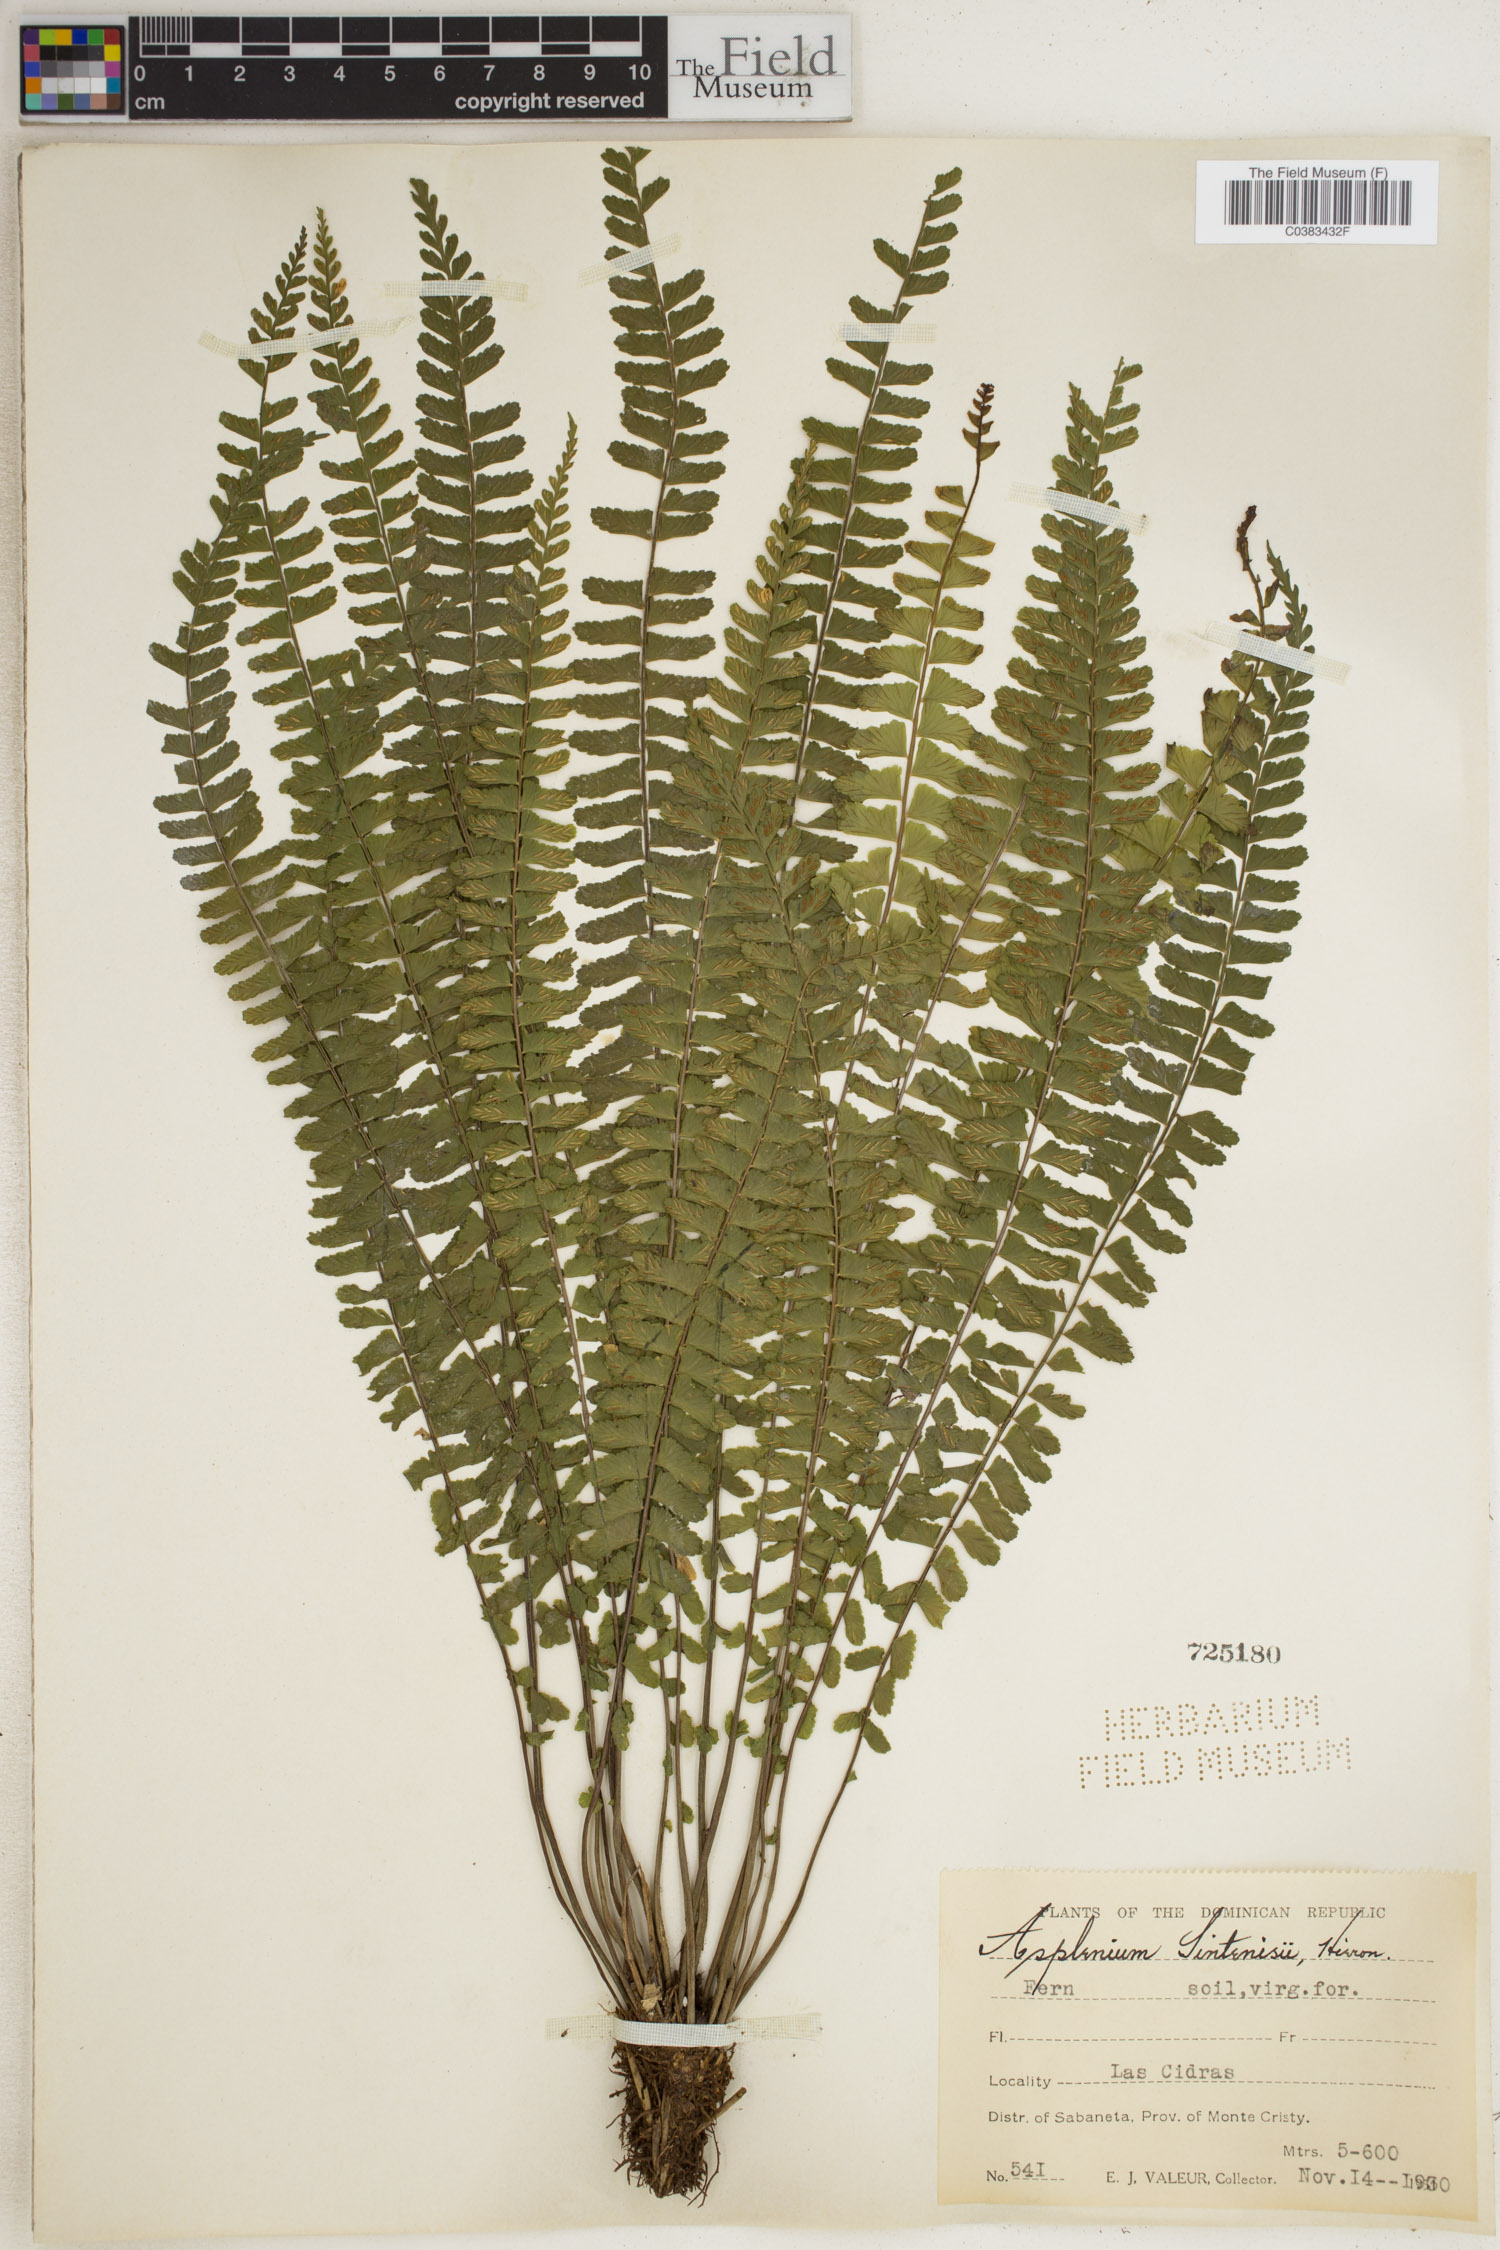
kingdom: Plantae
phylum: Tracheophyta
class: Polypodiopsida
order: Polypodiales
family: Aspleniaceae
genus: Asplenium
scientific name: Asplenium rhomboidale
